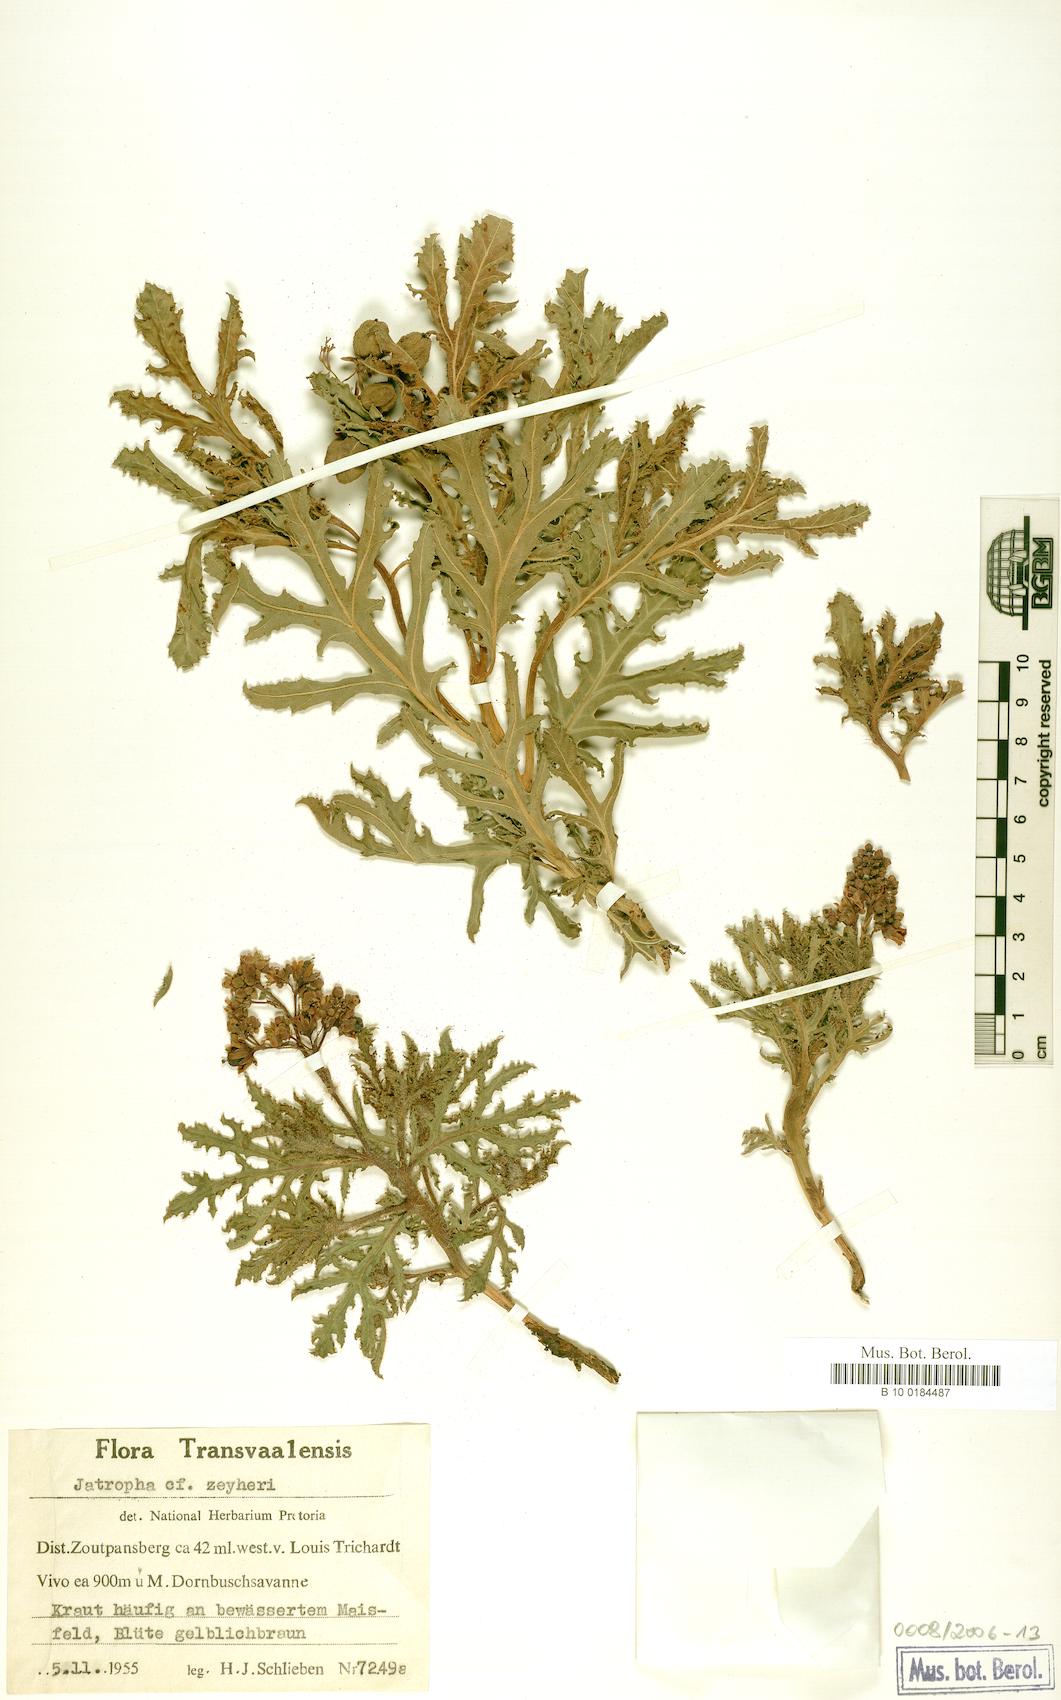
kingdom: Plantae
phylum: Tracheophyta
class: Magnoliopsida
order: Malpighiales
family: Euphorbiaceae
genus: Jatropha
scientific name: Jatropha schlechteri
